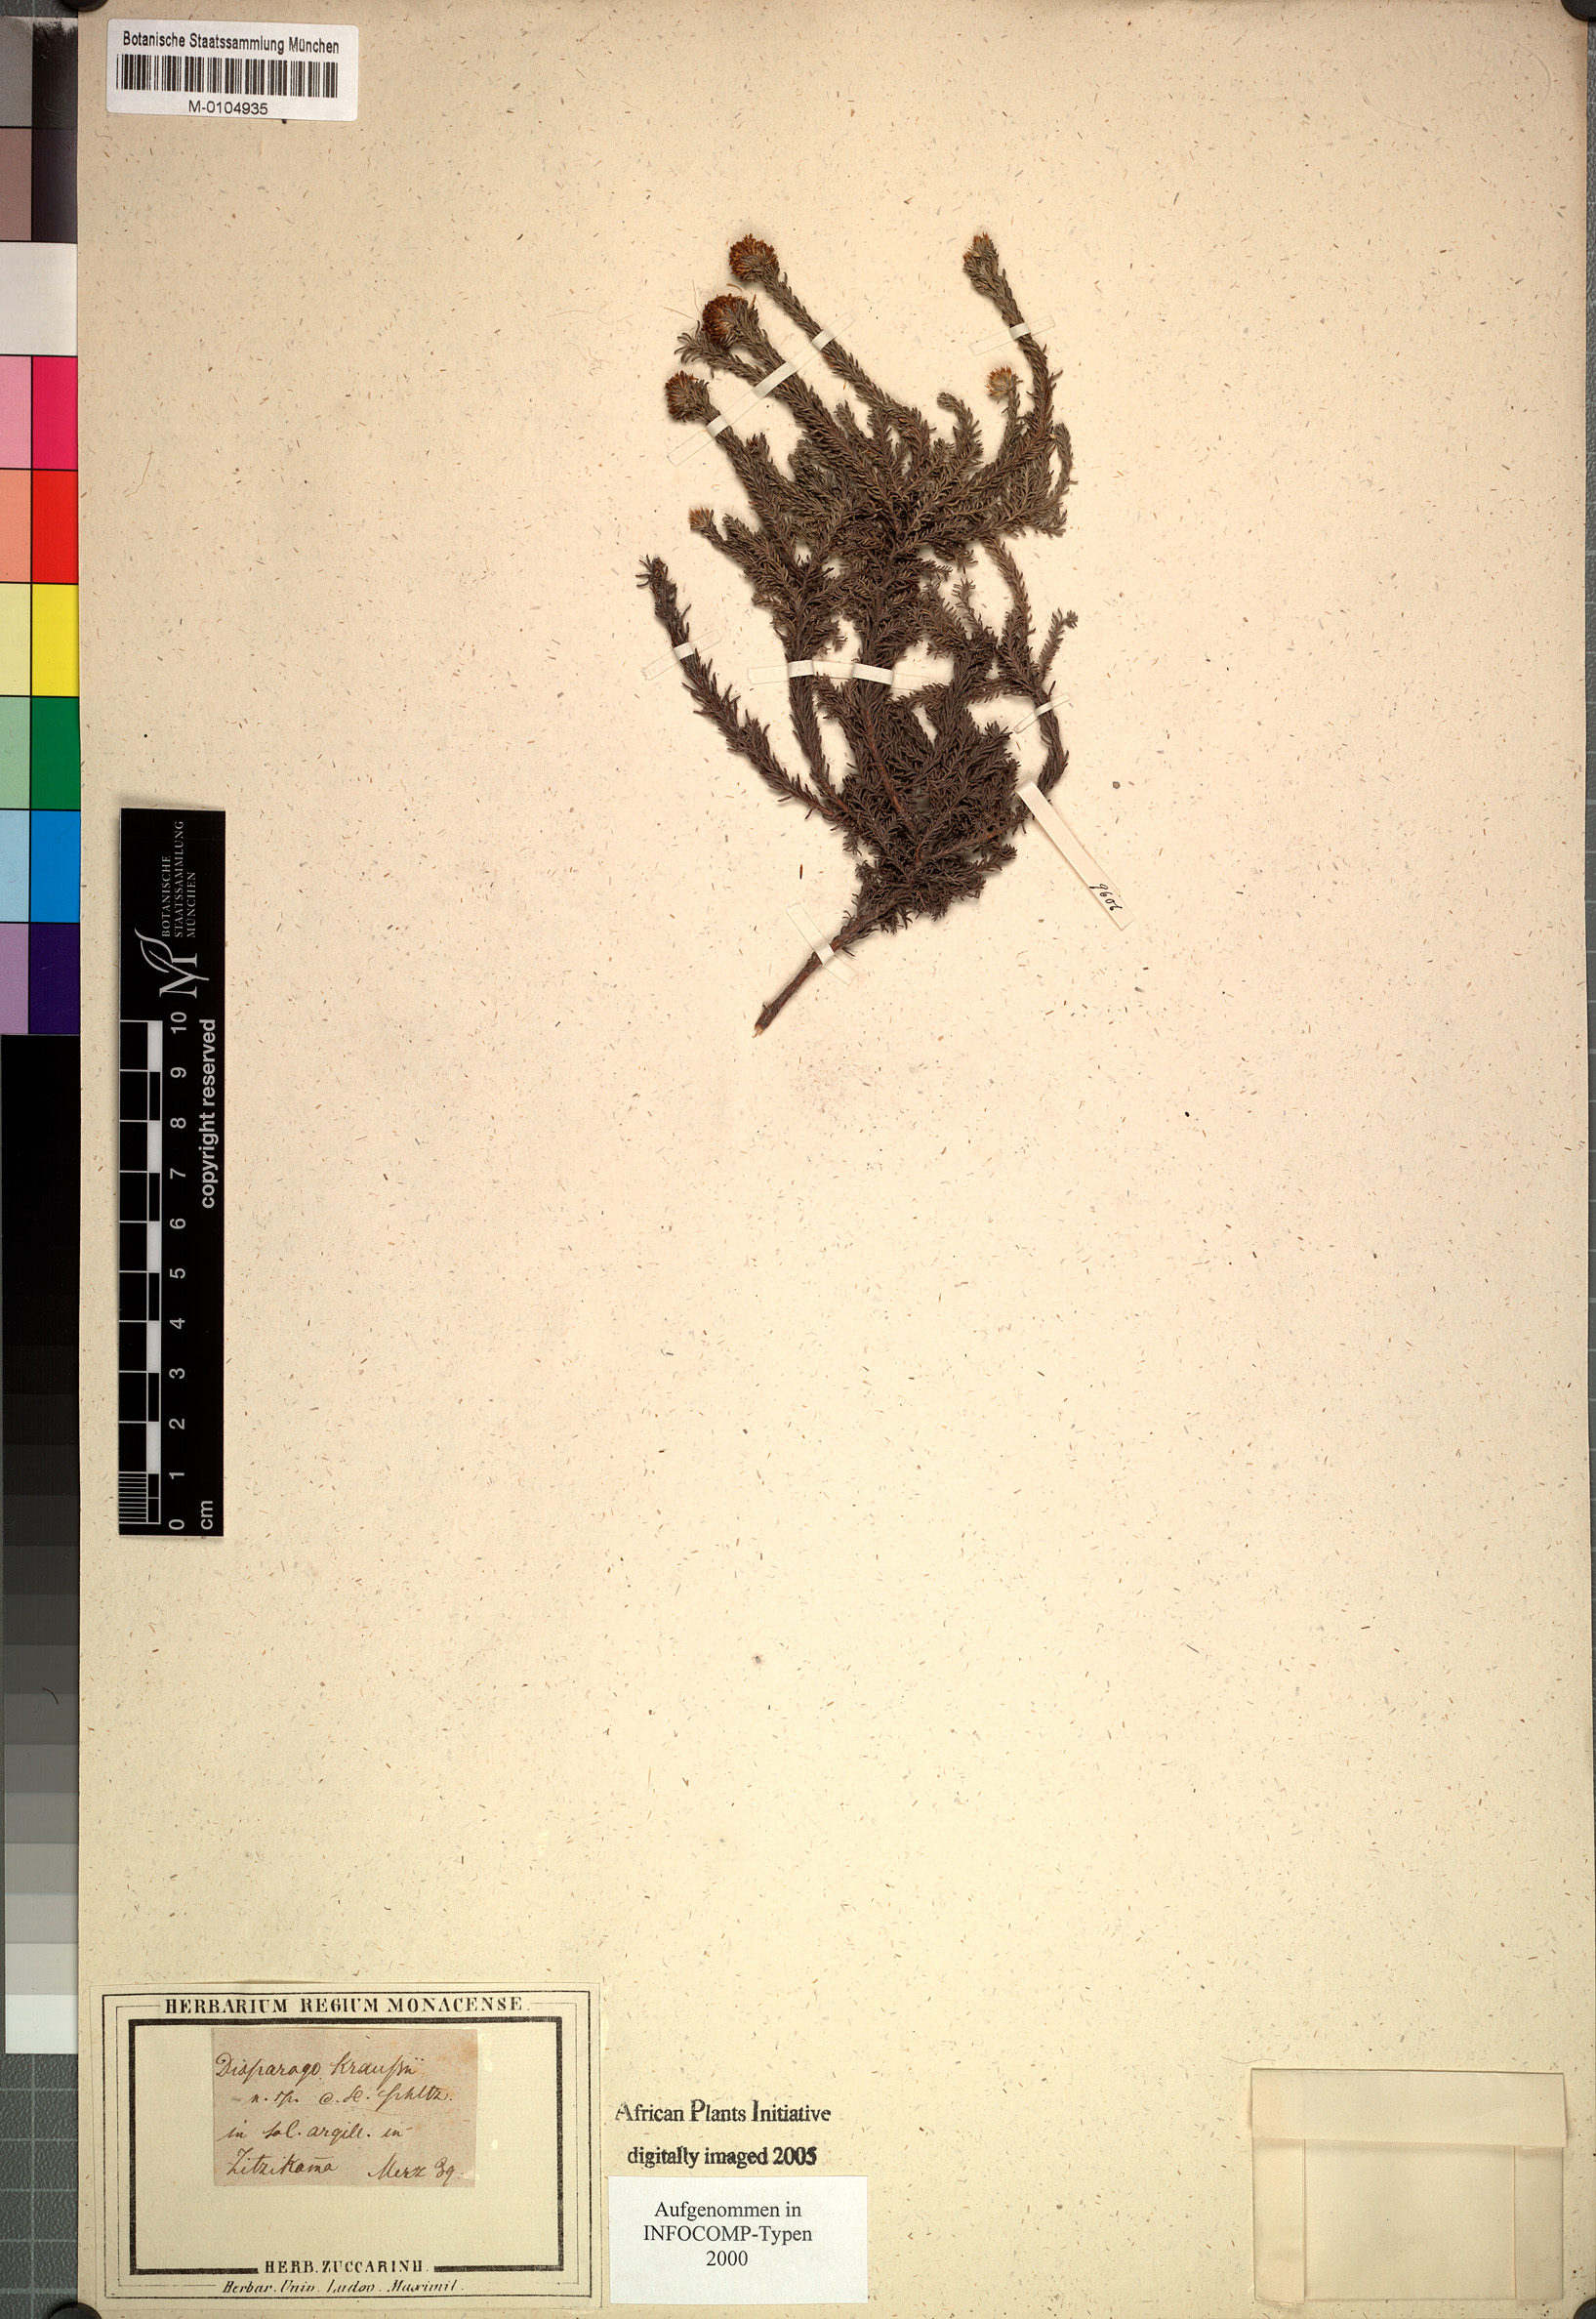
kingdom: Plantae
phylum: Tracheophyta
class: Magnoliopsida
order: Asterales
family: Asteraceae
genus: Disparago
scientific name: Disparago kraussii
